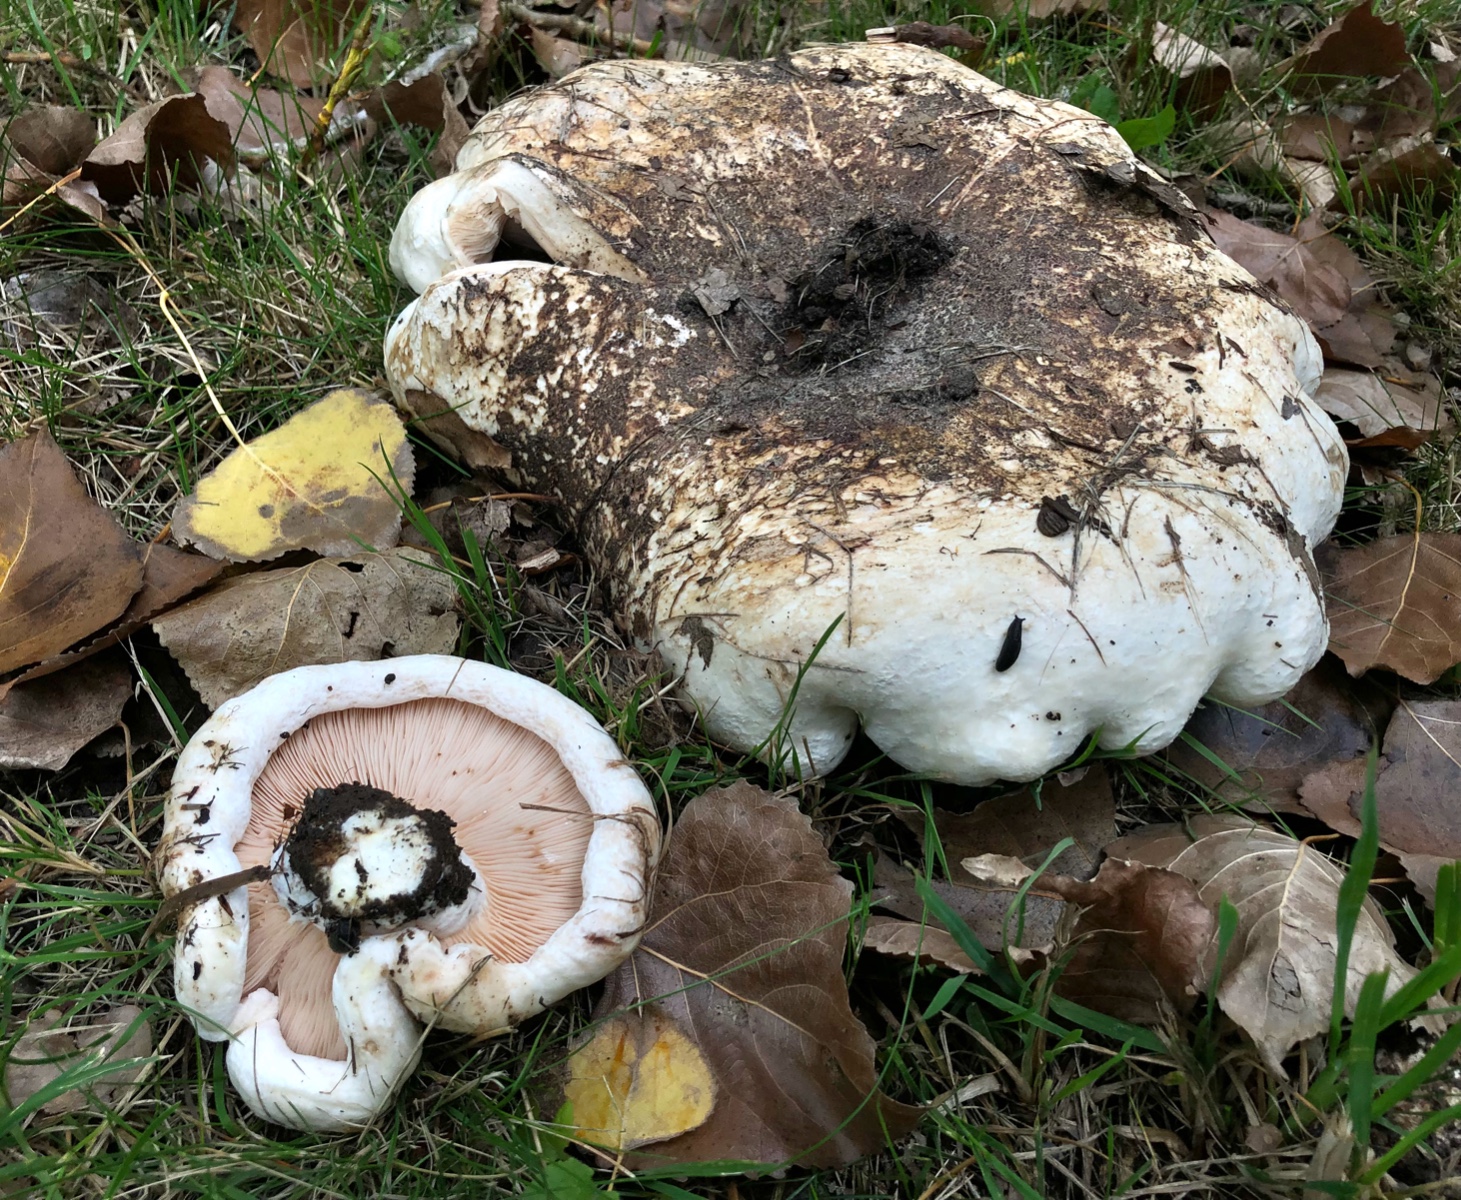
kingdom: Fungi
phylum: Basidiomycota
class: Agaricomycetes
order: Russulales
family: Russulaceae
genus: Lactarius
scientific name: Lactarius controversus
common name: rosabladet mælkehat
